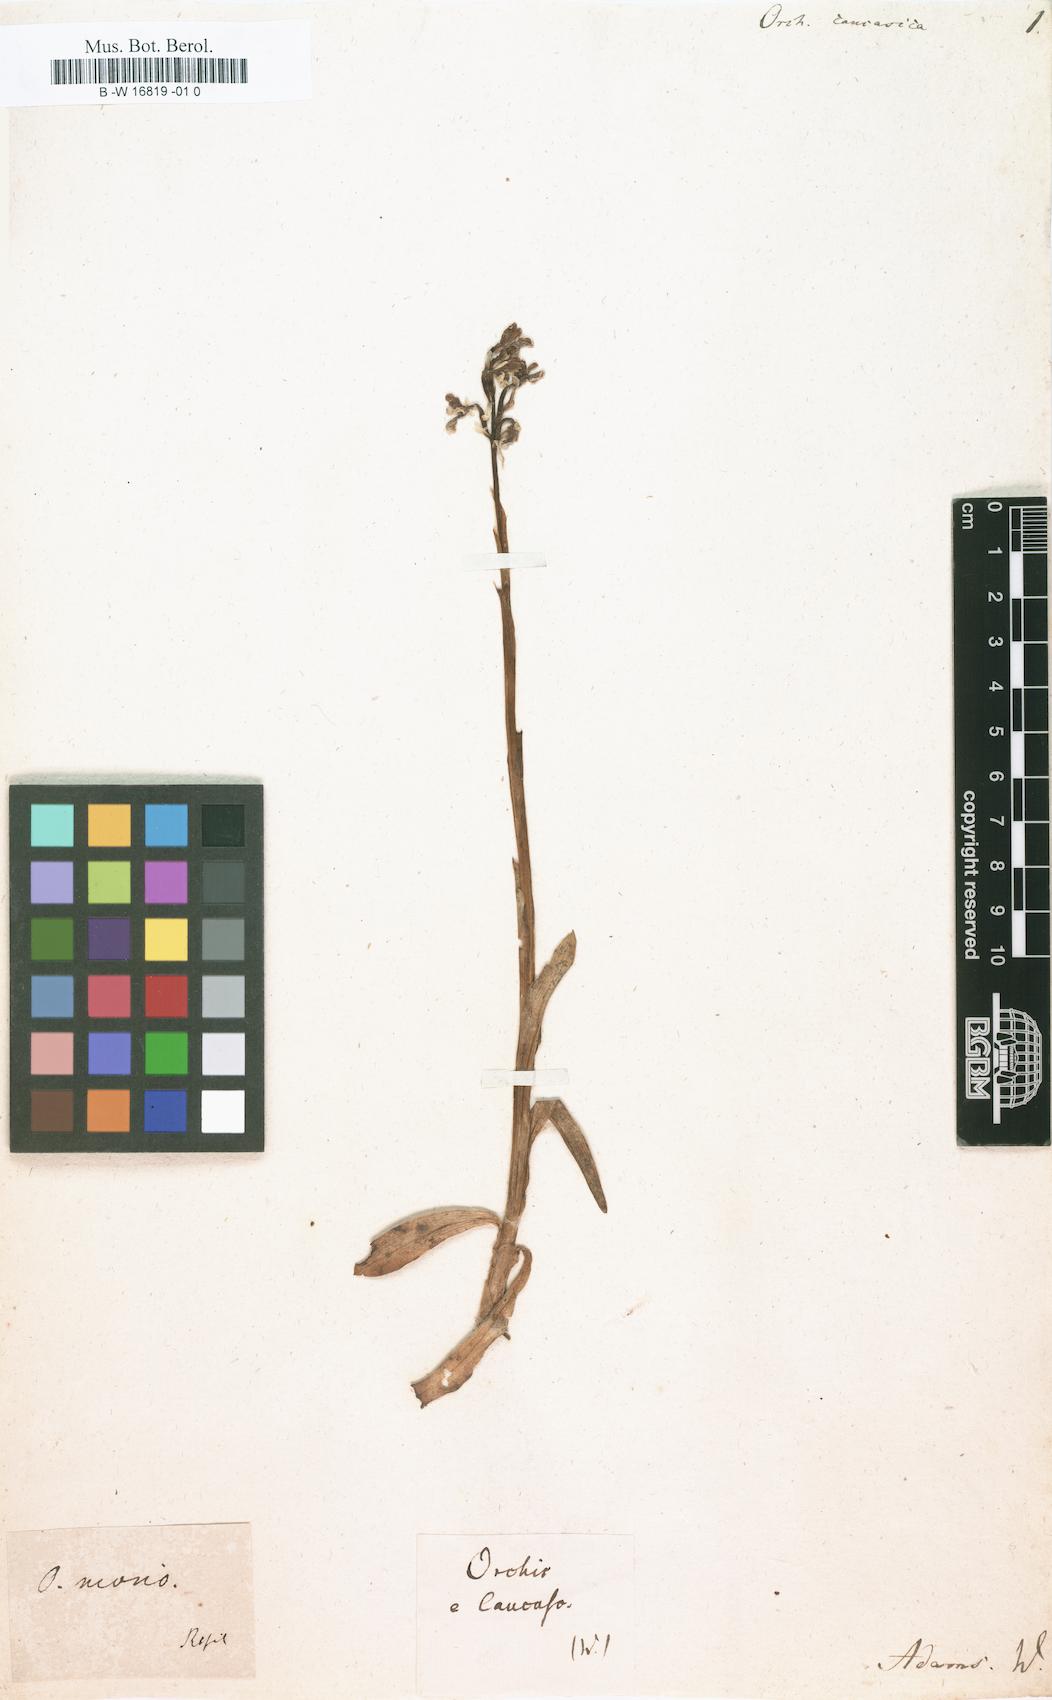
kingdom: Plantae
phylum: Tracheophyta
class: Liliopsida
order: Asparagales
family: Orchidaceae
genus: Orchis
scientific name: Orchis caucasica
